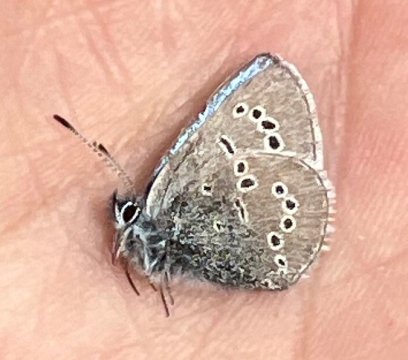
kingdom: Animalia
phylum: Arthropoda
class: Insecta
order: Lepidoptera
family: Lycaenidae
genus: Glaucopsyche
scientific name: Glaucopsyche lygdamus
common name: Silvery Blue
